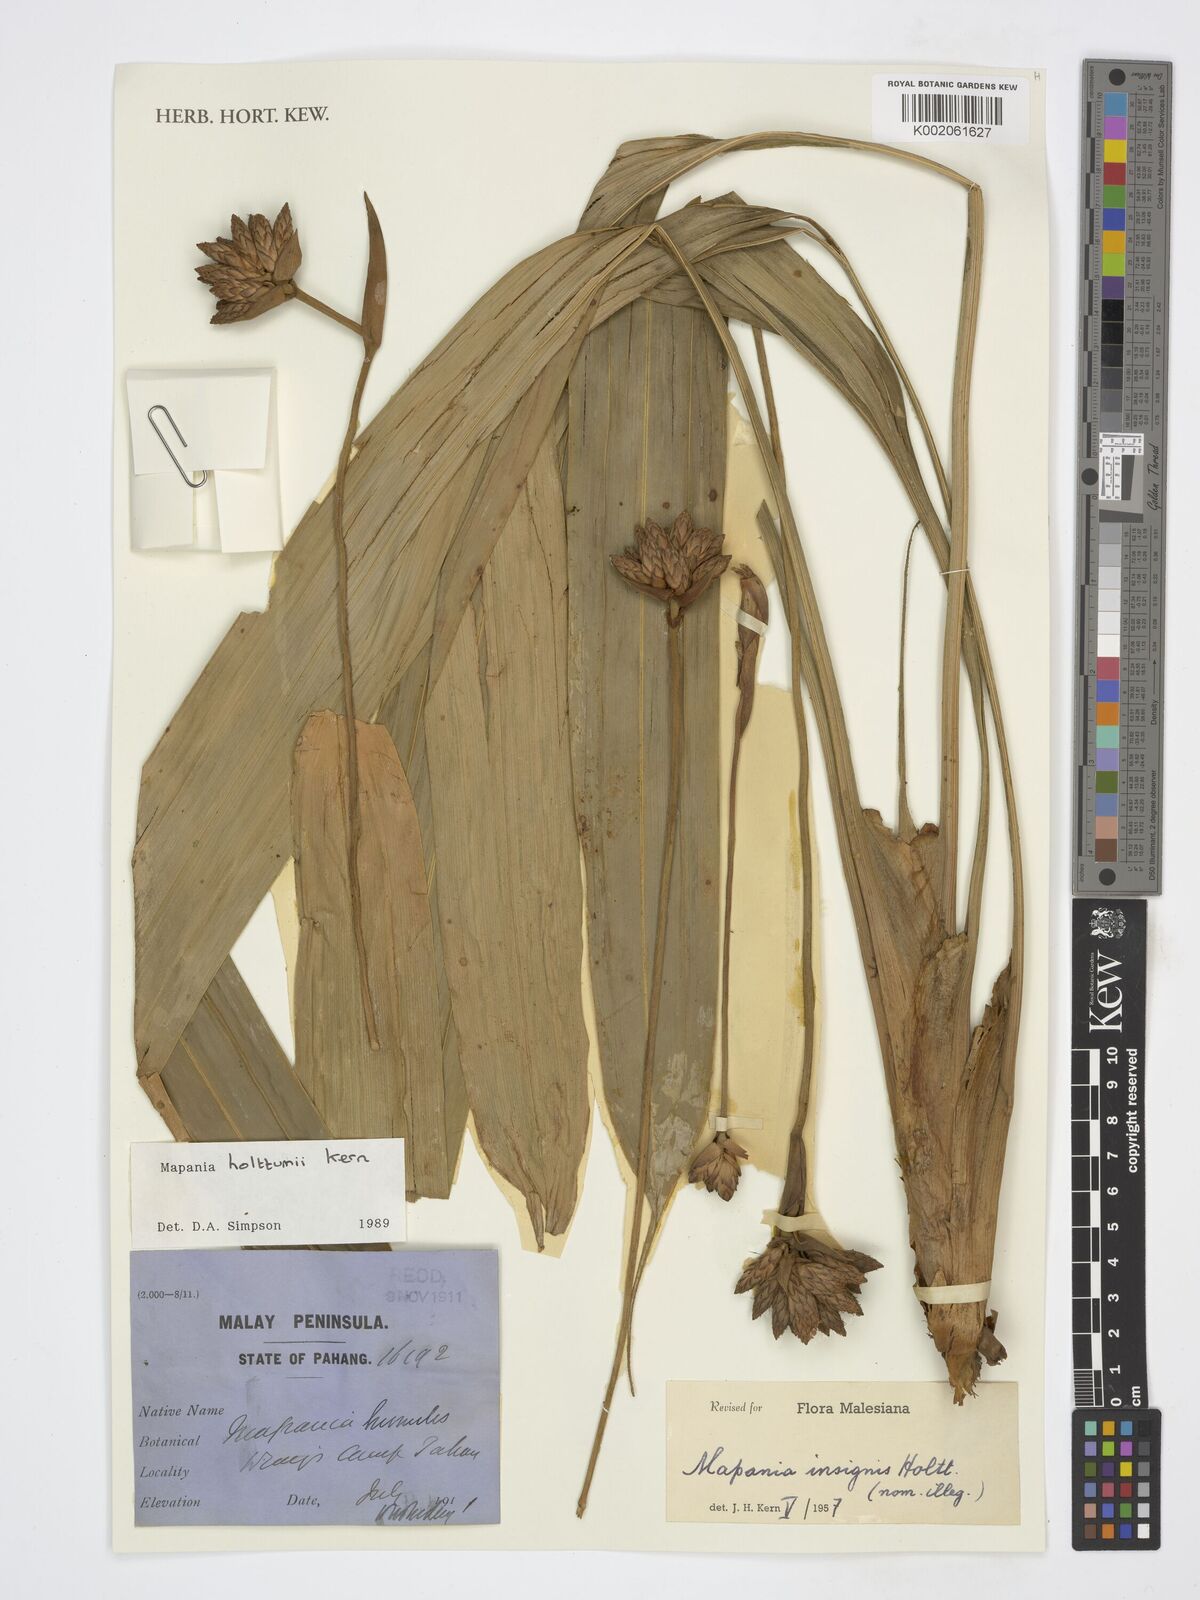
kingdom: Plantae
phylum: Tracheophyta
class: Liliopsida
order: Poales
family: Cyperaceae
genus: Mapania
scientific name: Mapania holttumii
